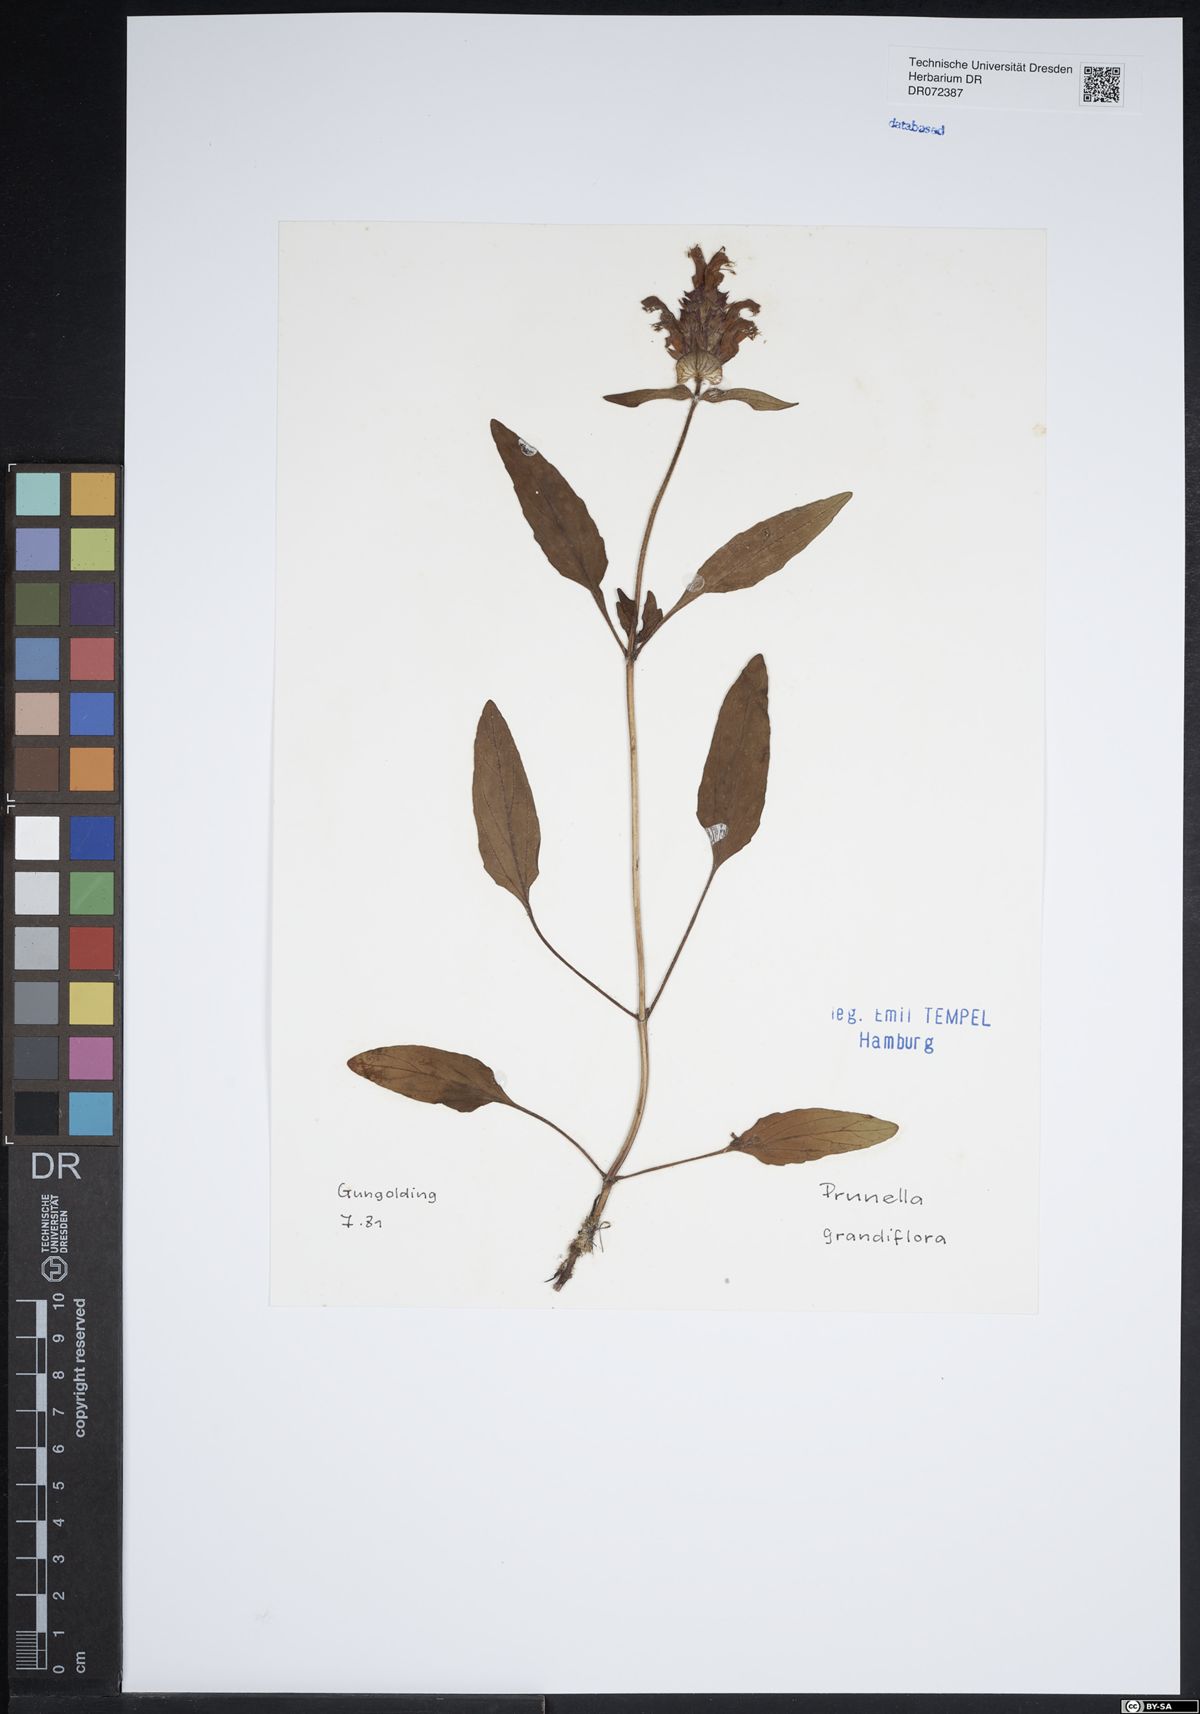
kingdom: Plantae
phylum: Tracheophyta
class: Magnoliopsida
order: Lamiales
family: Lamiaceae
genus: Prunella
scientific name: Prunella grandiflora
